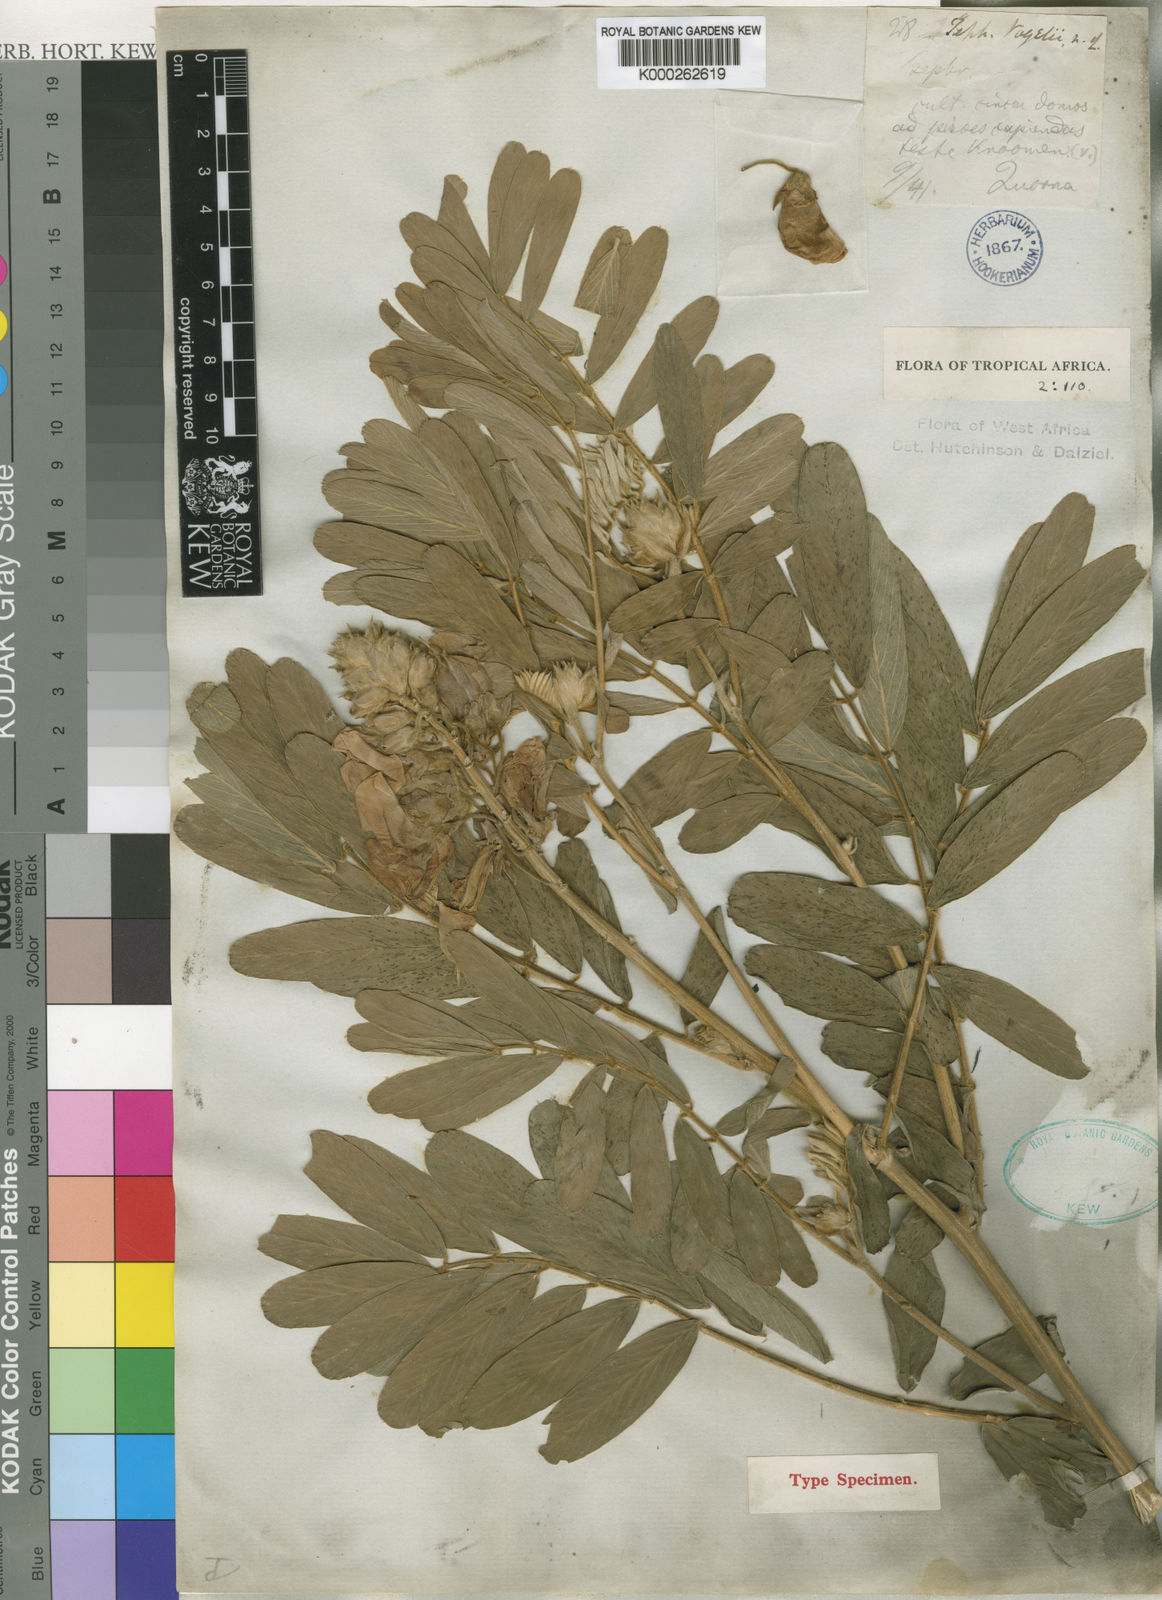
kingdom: Plantae
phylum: Tracheophyta
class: Magnoliopsida
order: Fabales
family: Fabaceae
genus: Tephrosia
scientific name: Tephrosia vogelii
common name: Vogel tephrosia
